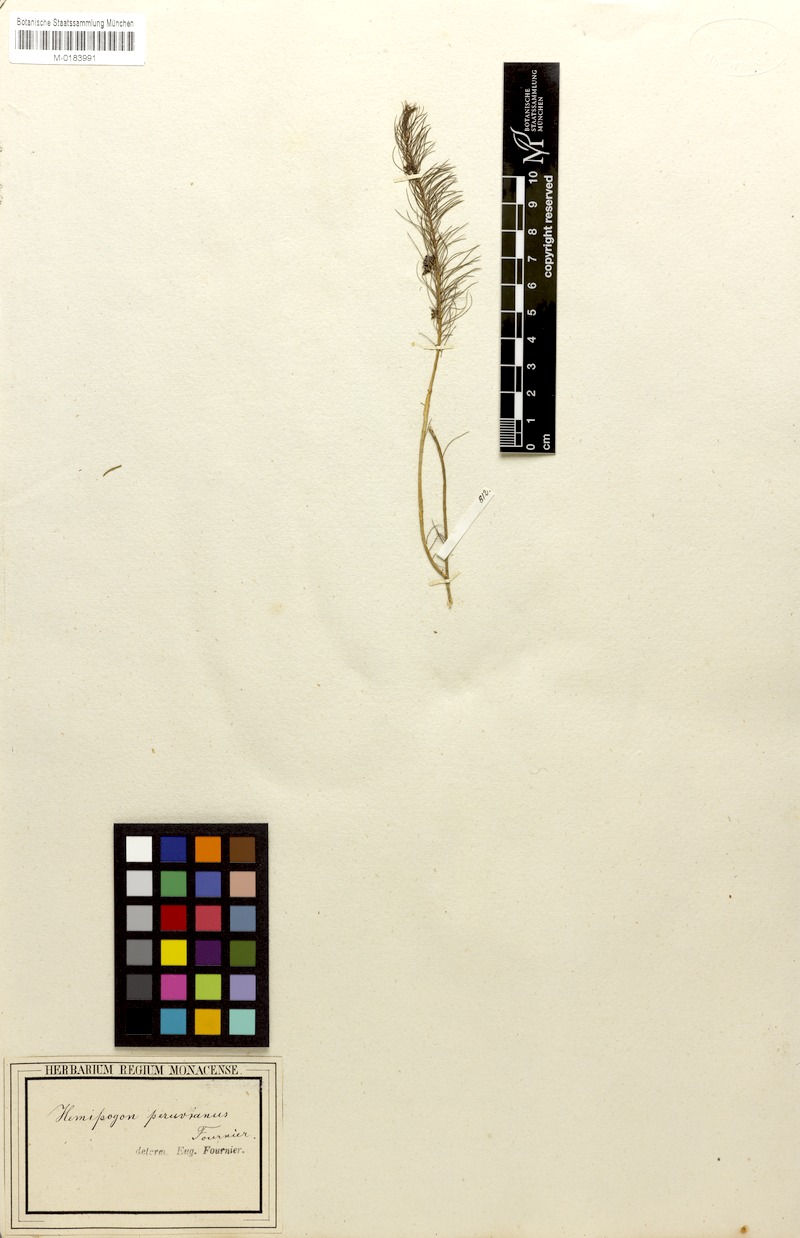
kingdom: Plantae
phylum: Tracheophyta
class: Magnoliopsida
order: Gentianales
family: Apocynaceae
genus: Hemipogon
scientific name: Hemipogon peruvianus
